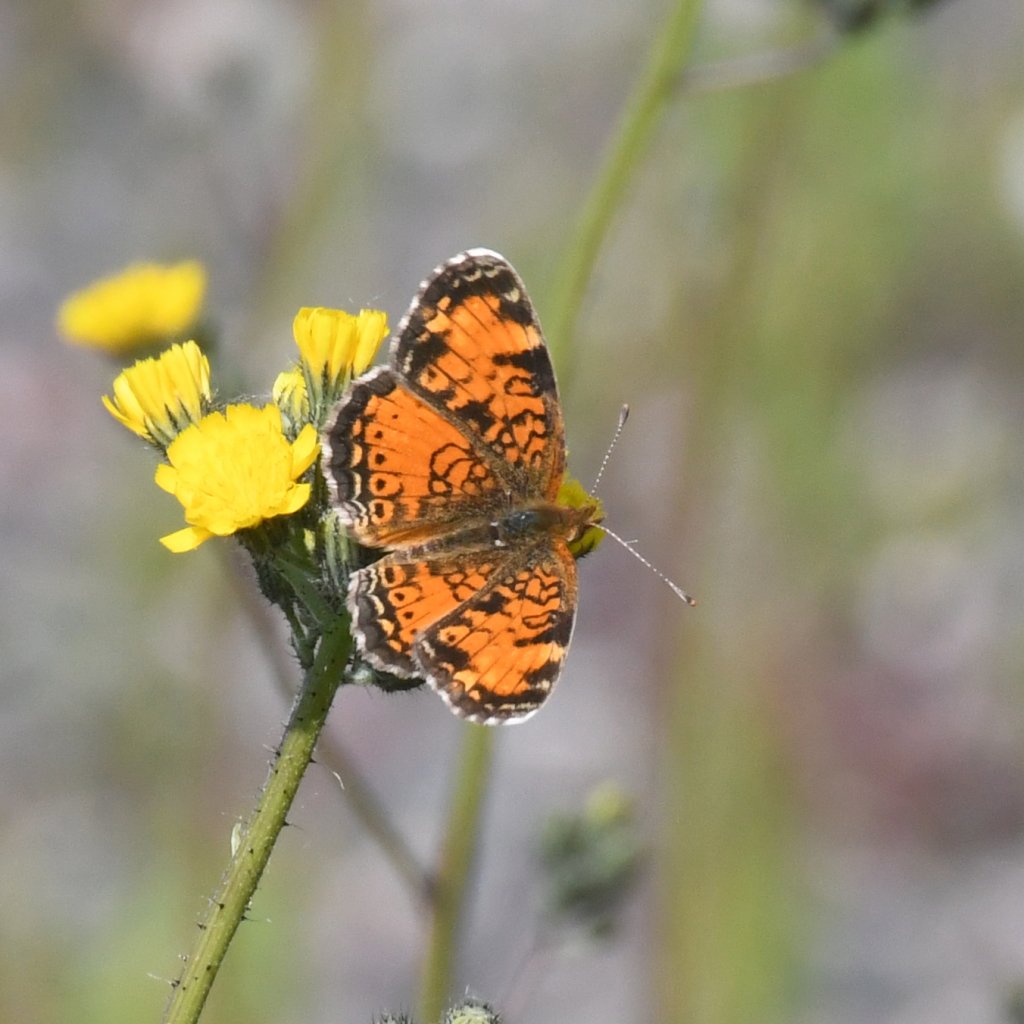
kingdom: Animalia
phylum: Arthropoda
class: Insecta
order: Lepidoptera
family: Nymphalidae
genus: Phyciodes
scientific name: Phyciodes tharos
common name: Northern Crescent
